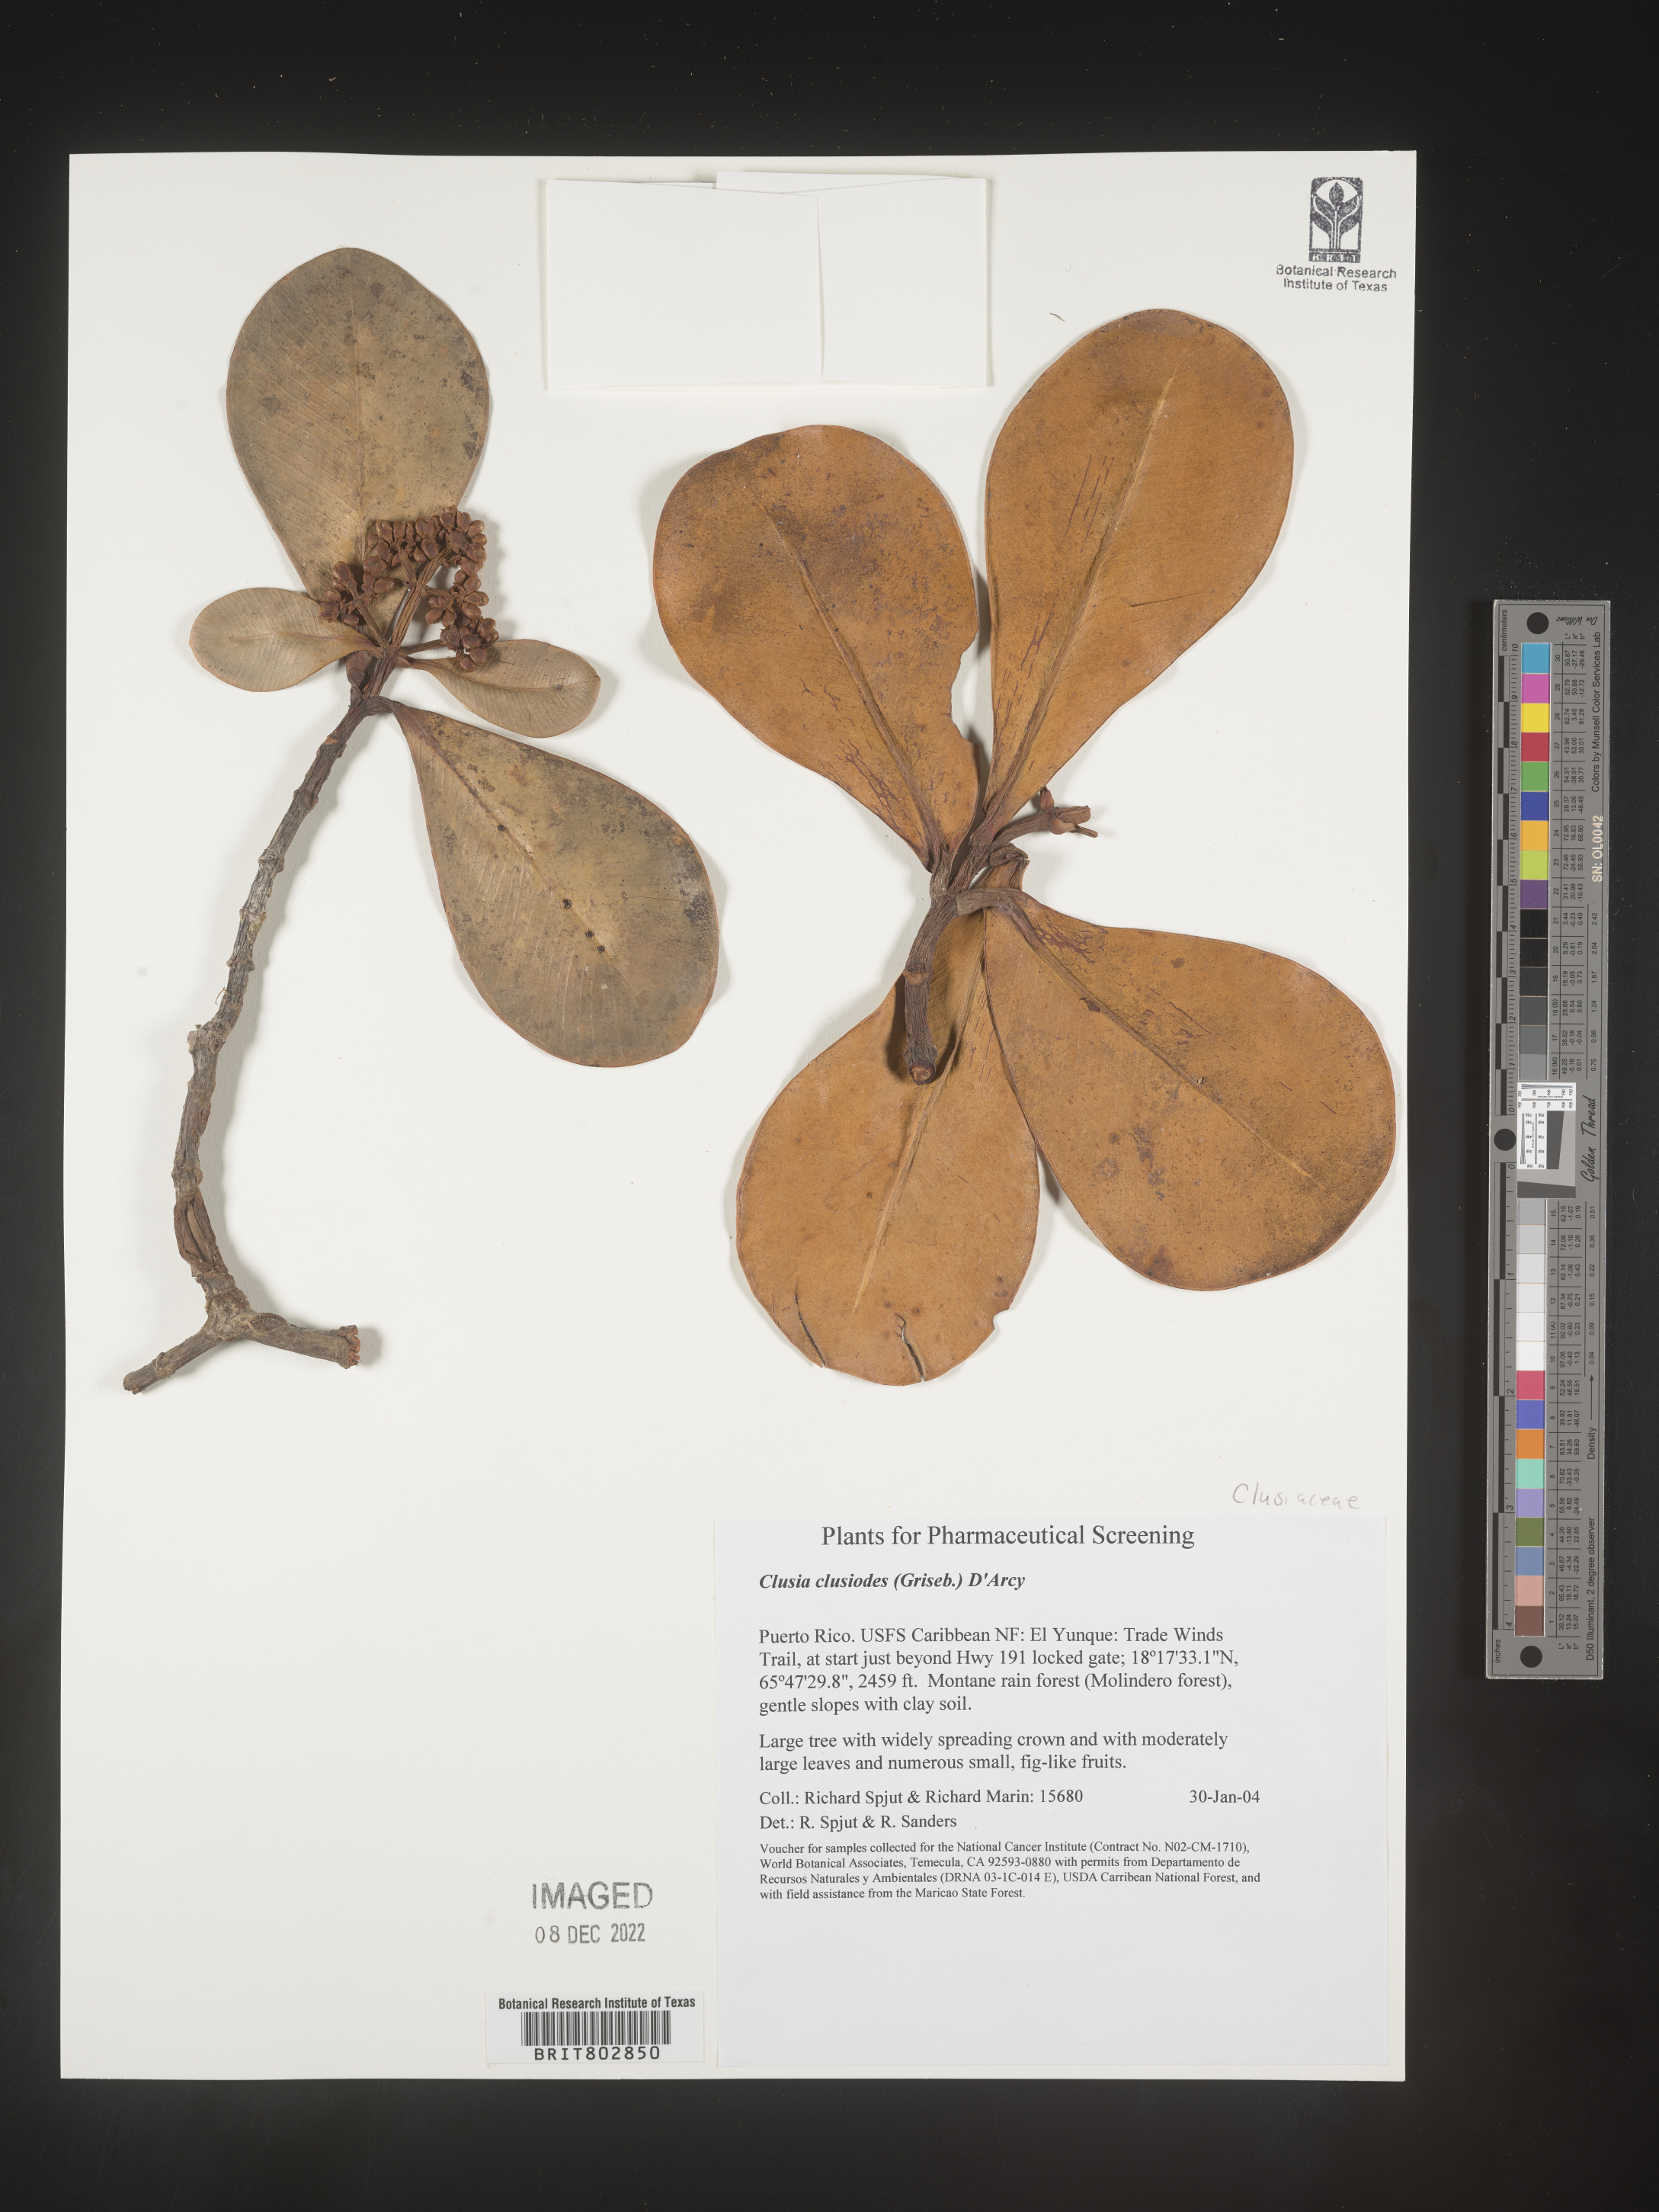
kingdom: Plantae
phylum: Tracheophyta
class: Magnoliopsida
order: Malpighiales
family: Clusiaceae
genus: Clusia
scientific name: Clusia
